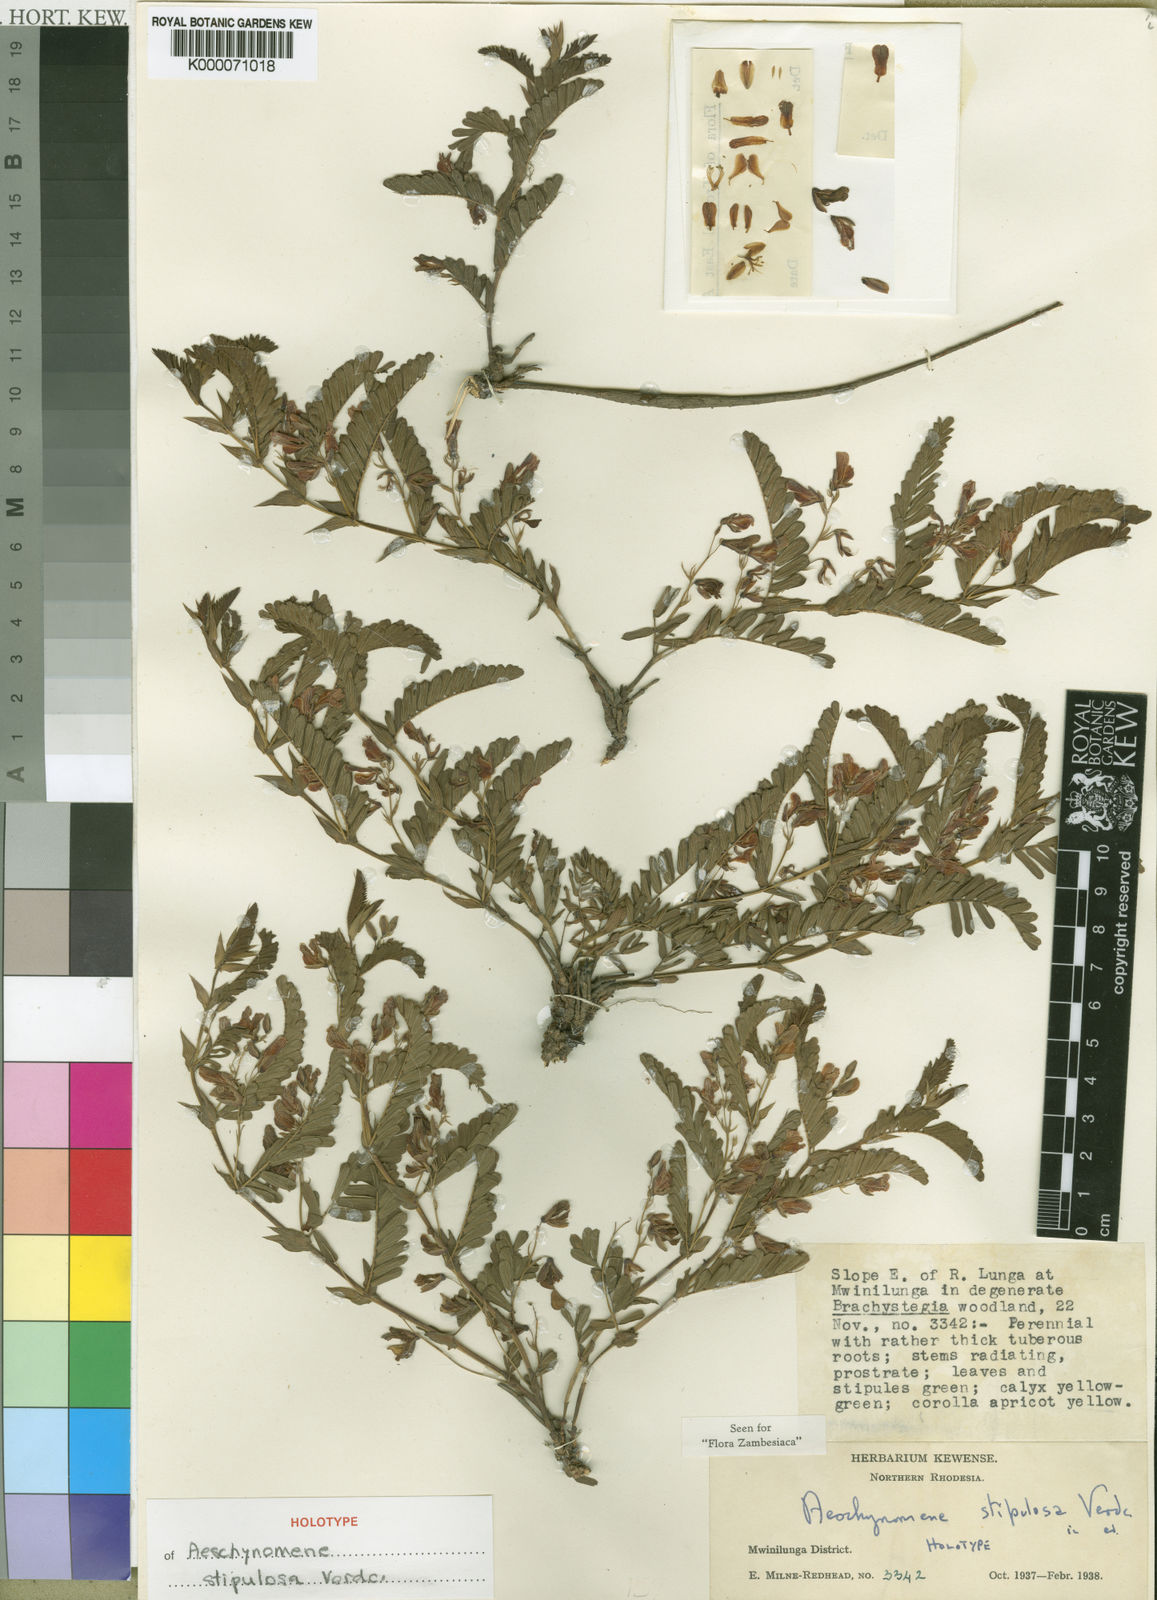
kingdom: Plantae
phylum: Tracheophyta
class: Magnoliopsida
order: Fabales
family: Fabaceae
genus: Aeschynomene
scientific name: Aeschynomene stipulosa
